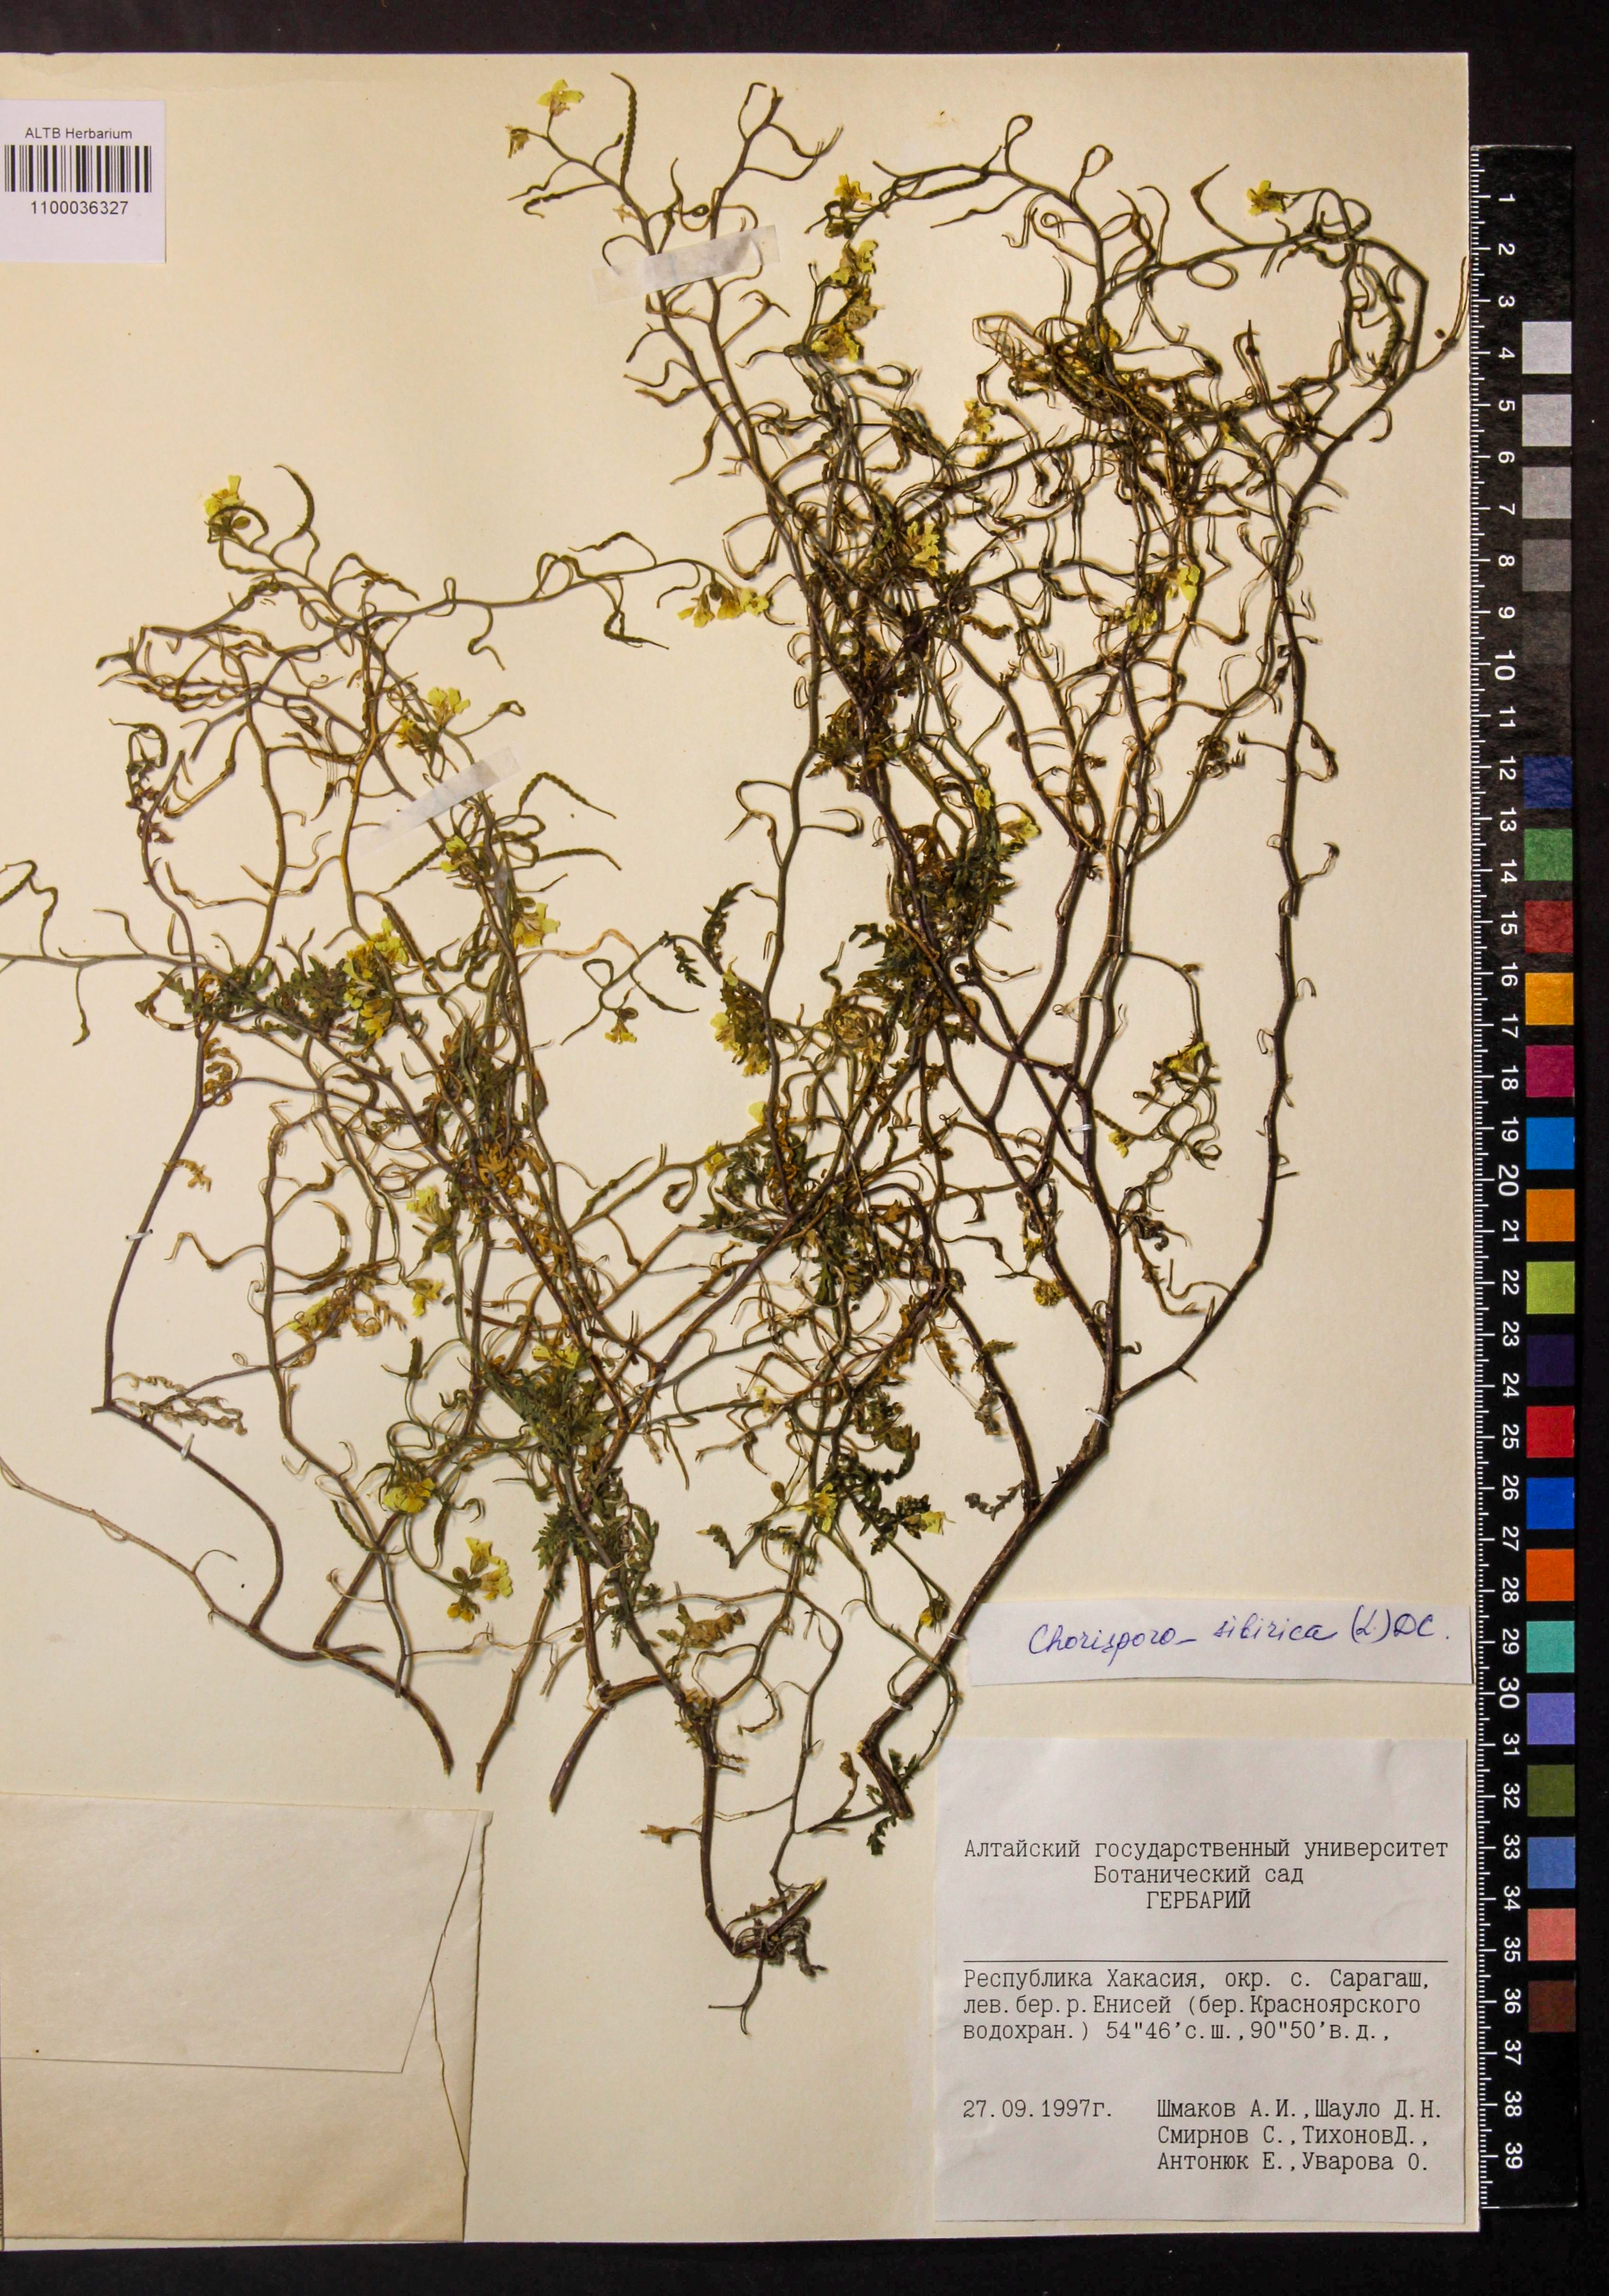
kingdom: Plantae
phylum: Tracheophyta
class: Magnoliopsida
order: Brassicales
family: Brassicaceae
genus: Chorispora
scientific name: Chorispora sibirica
